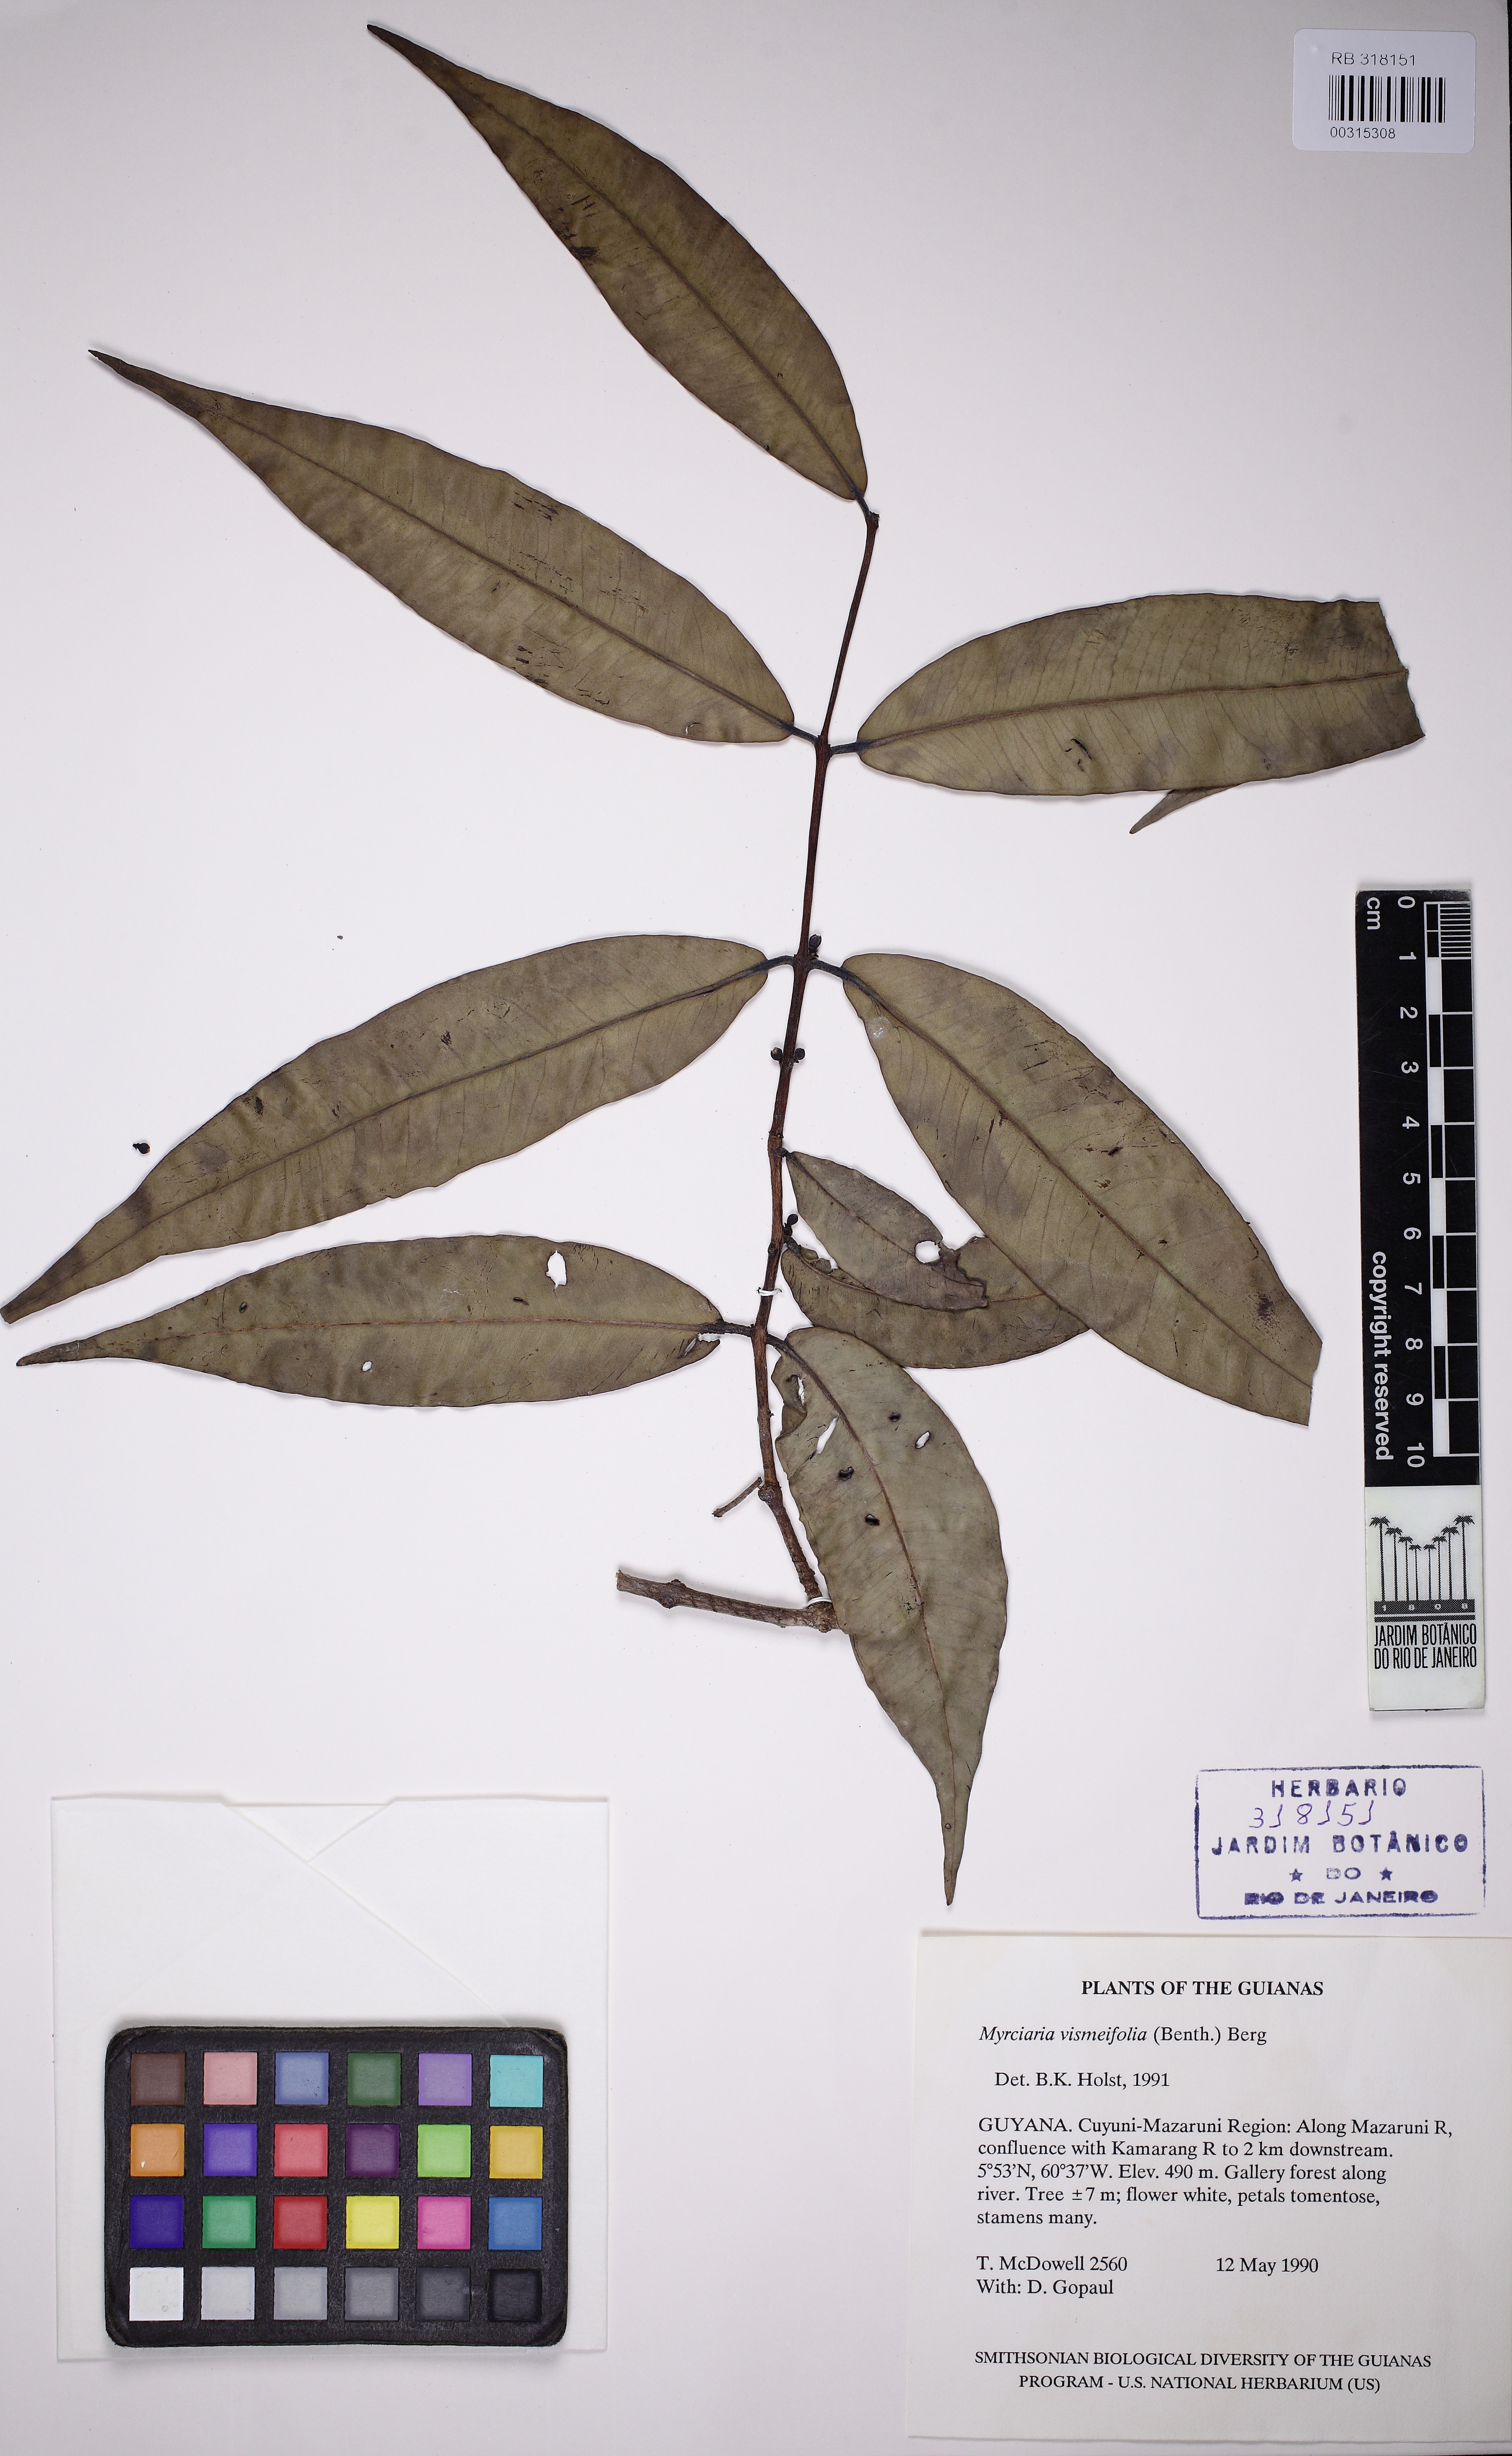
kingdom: Plantae
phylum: Tracheophyta
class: Magnoliopsida
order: Myrtales
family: Myrtaceae
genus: Myrciaria
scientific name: Myrciaria vismiifolia
